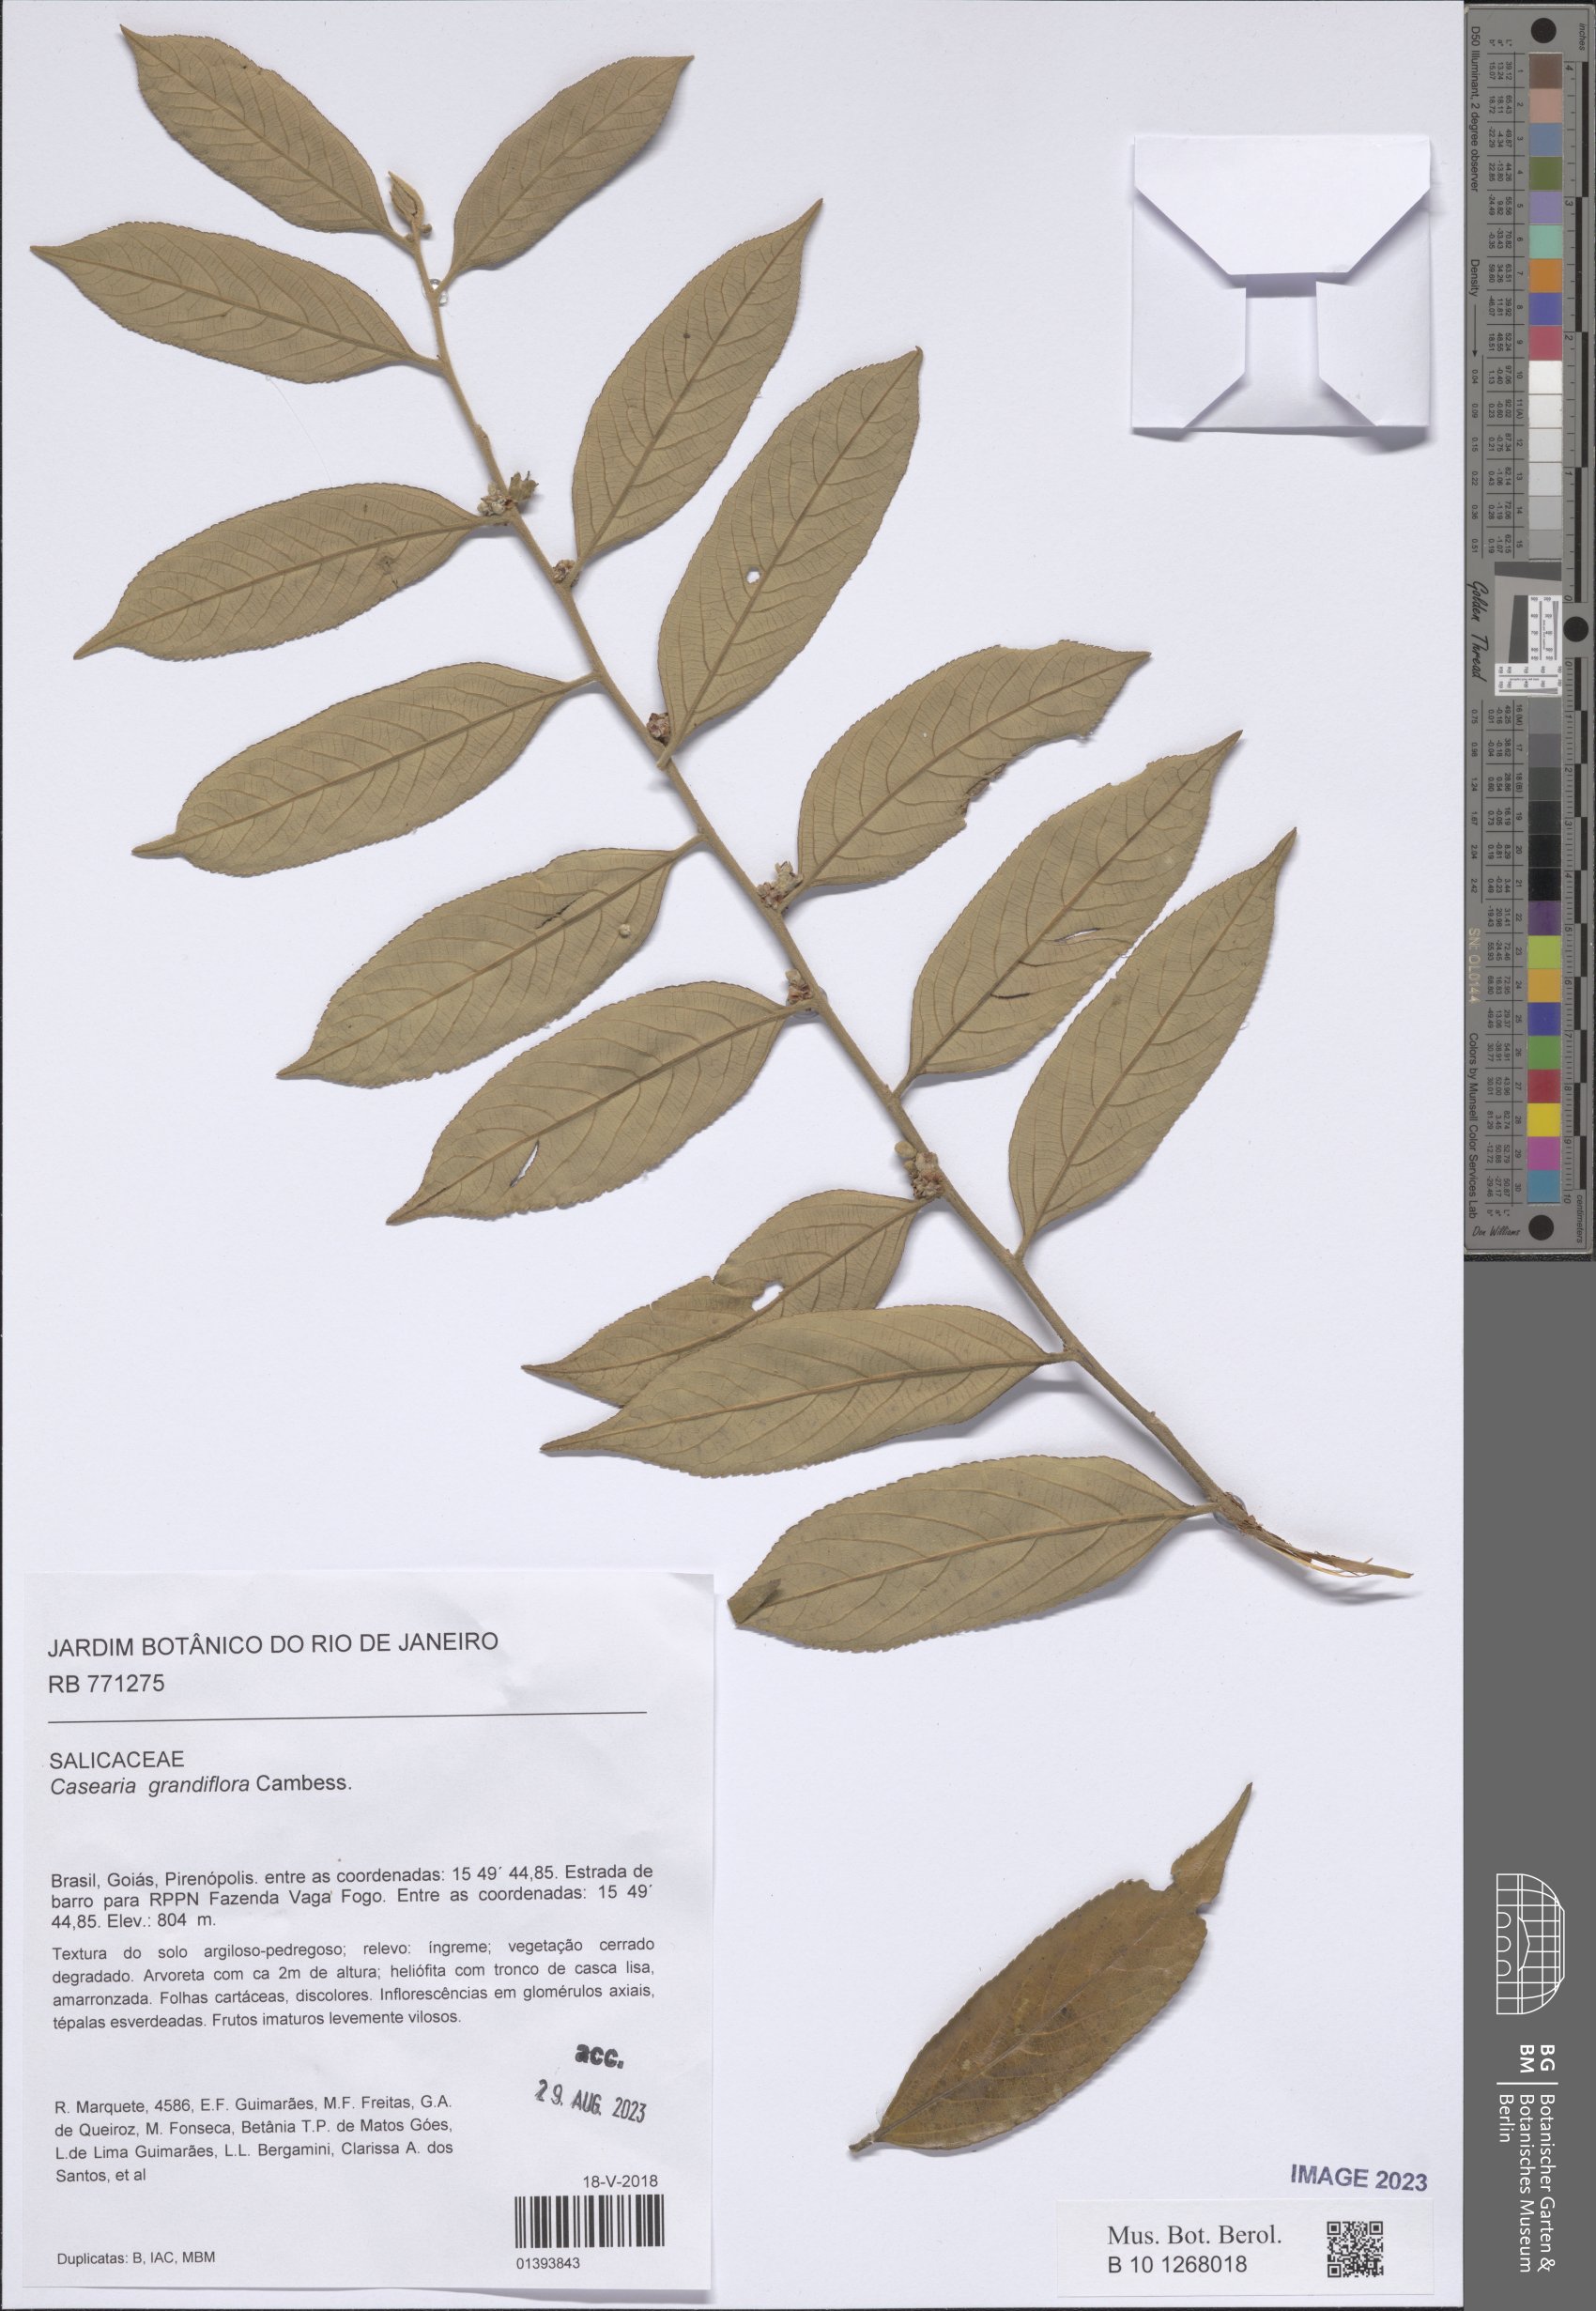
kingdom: Plantae
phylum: Tracheophyta
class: Magnoliopsida
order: Malpighiales
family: Salicaceae
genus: Casearia
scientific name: Casearia grandiflora
